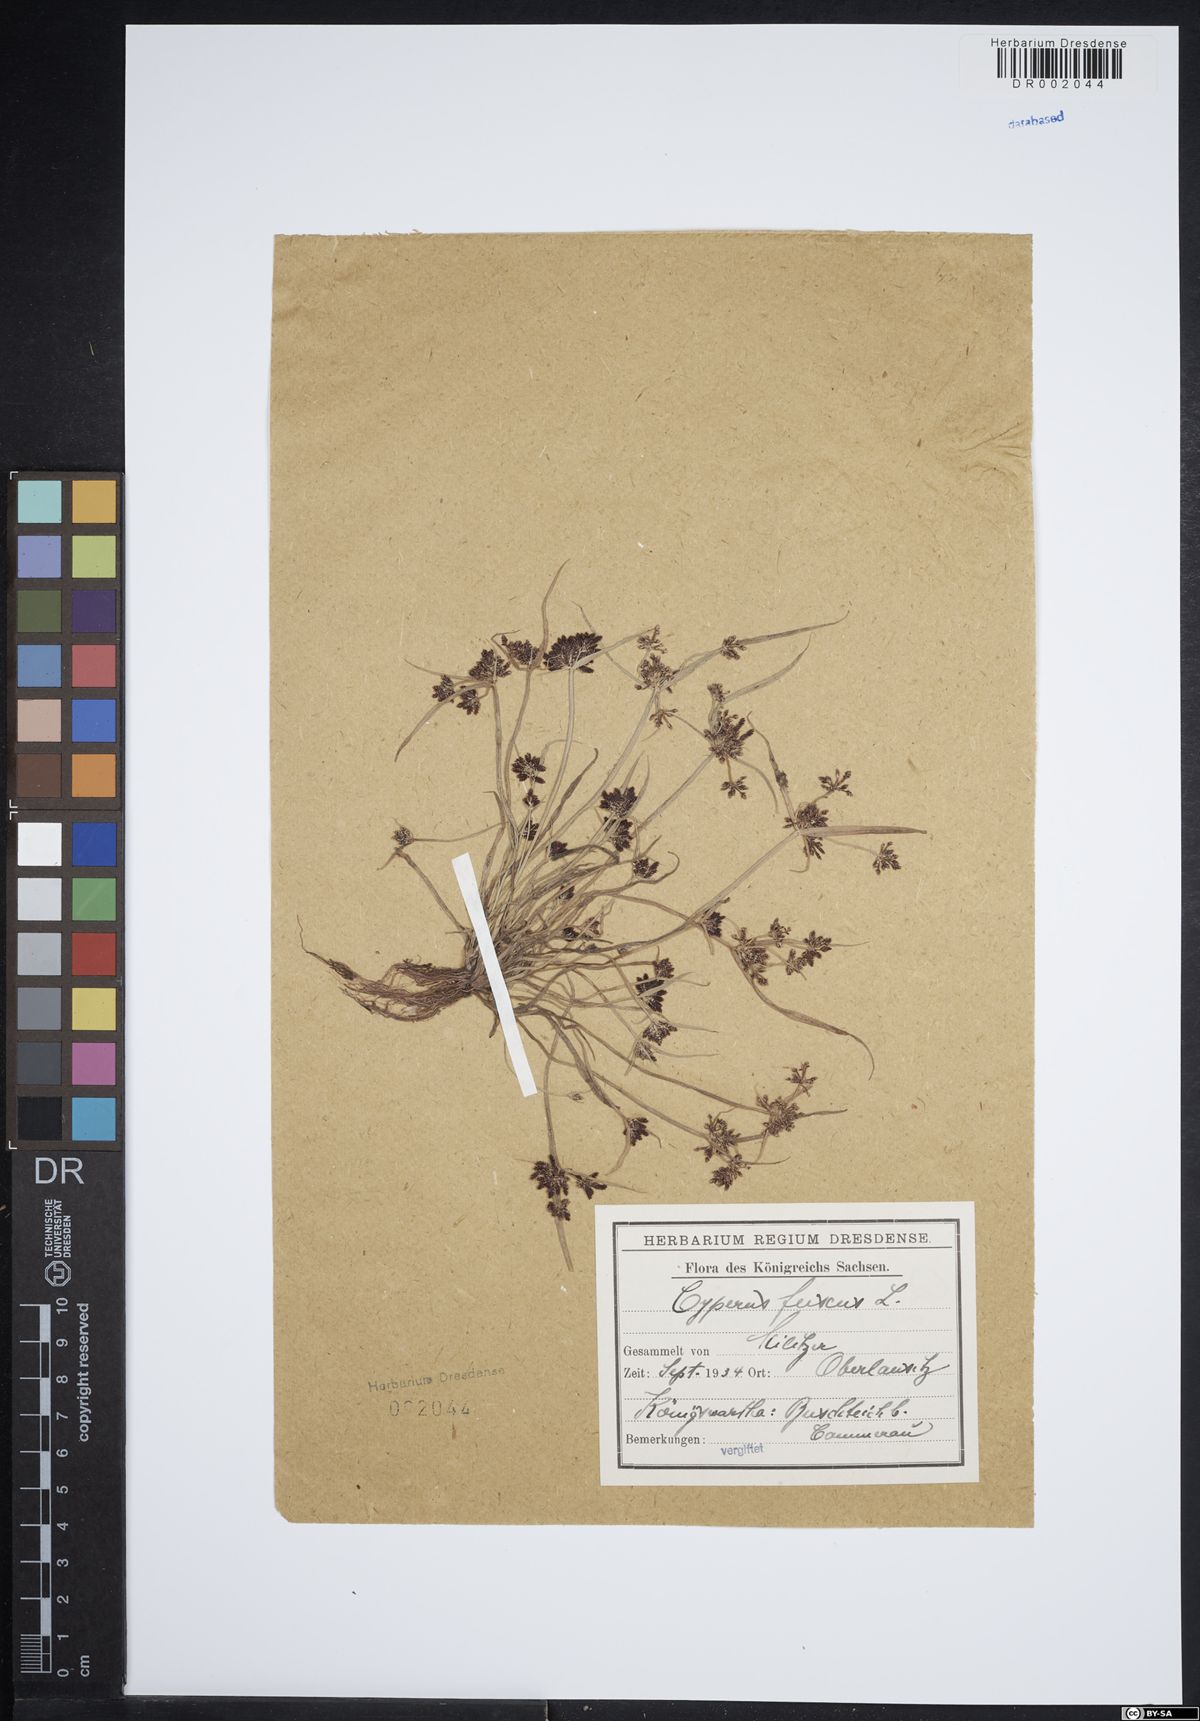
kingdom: Plantae
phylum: Tracheophyta
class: Liliopsida
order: Poales
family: Cyperaceae
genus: Cyperus
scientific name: Cyperus fuscus
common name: Brown galingale
